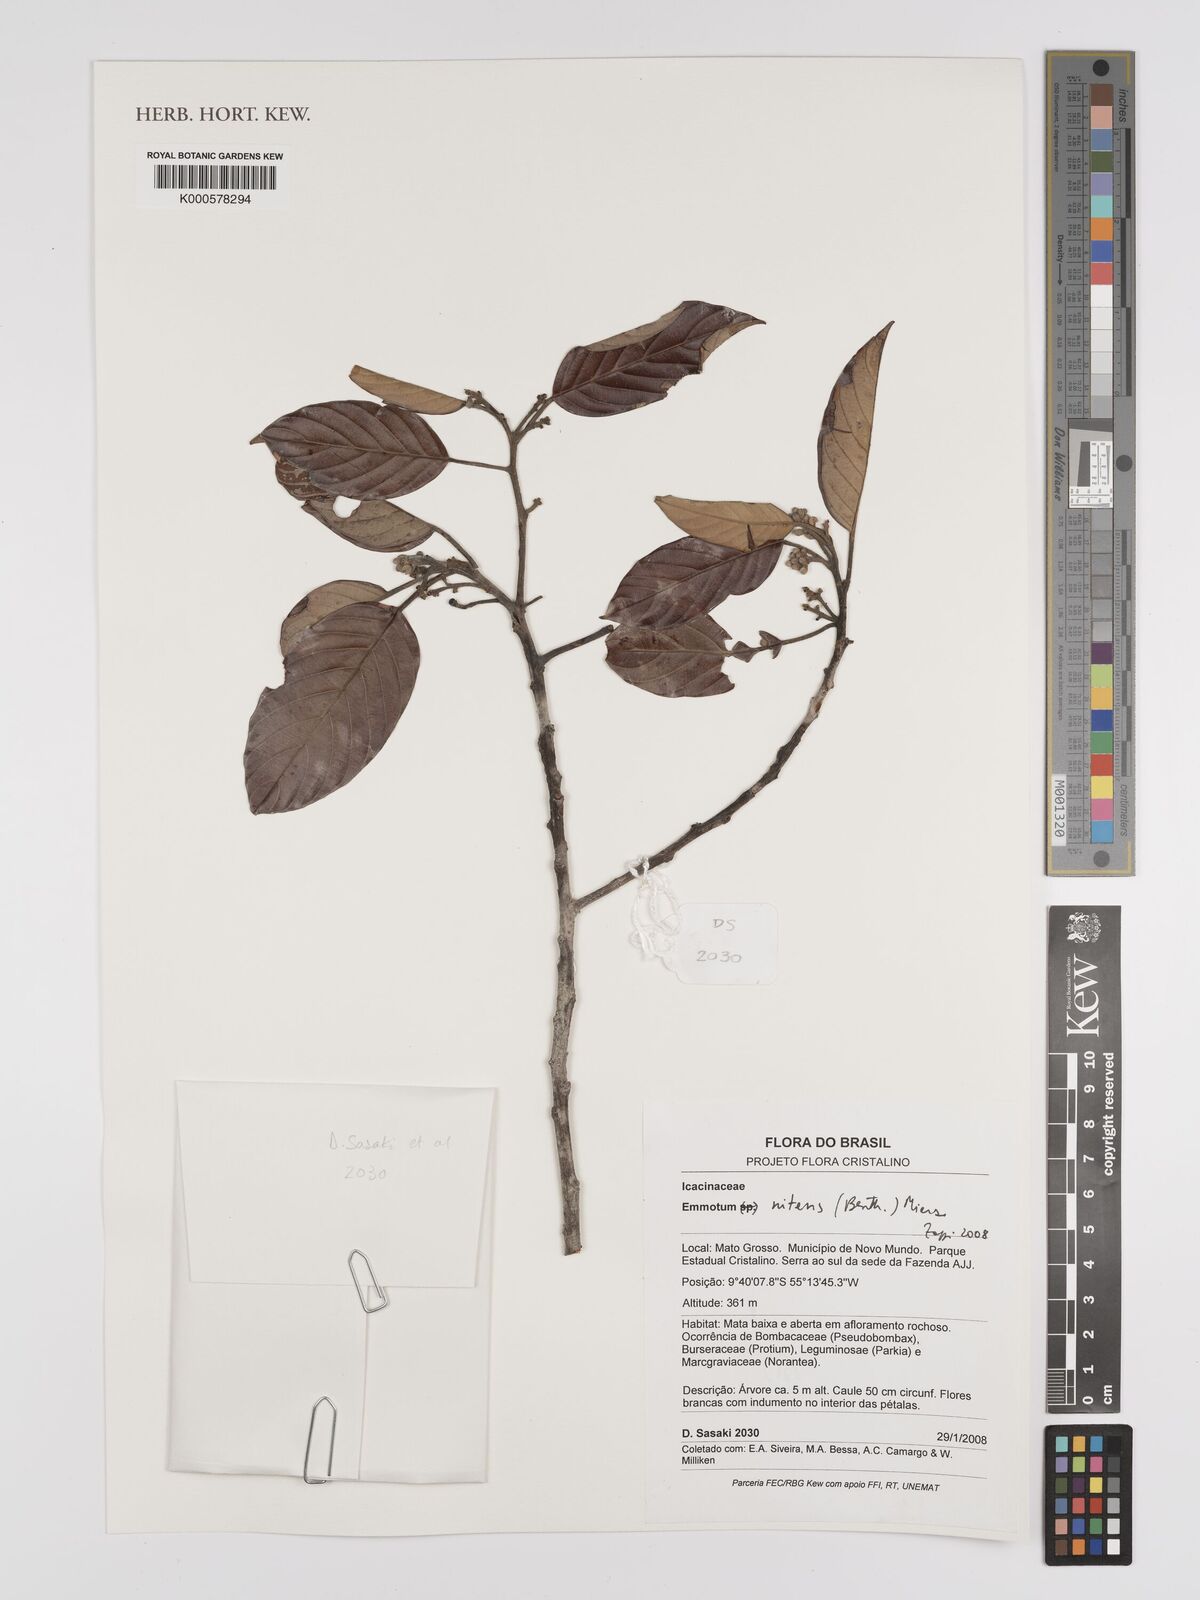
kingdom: Plantae
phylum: Tracheophyta
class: Magnoliopsida
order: Metteniusales
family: Metteniusaceae
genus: Emmotum
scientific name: Emmotum nitens
